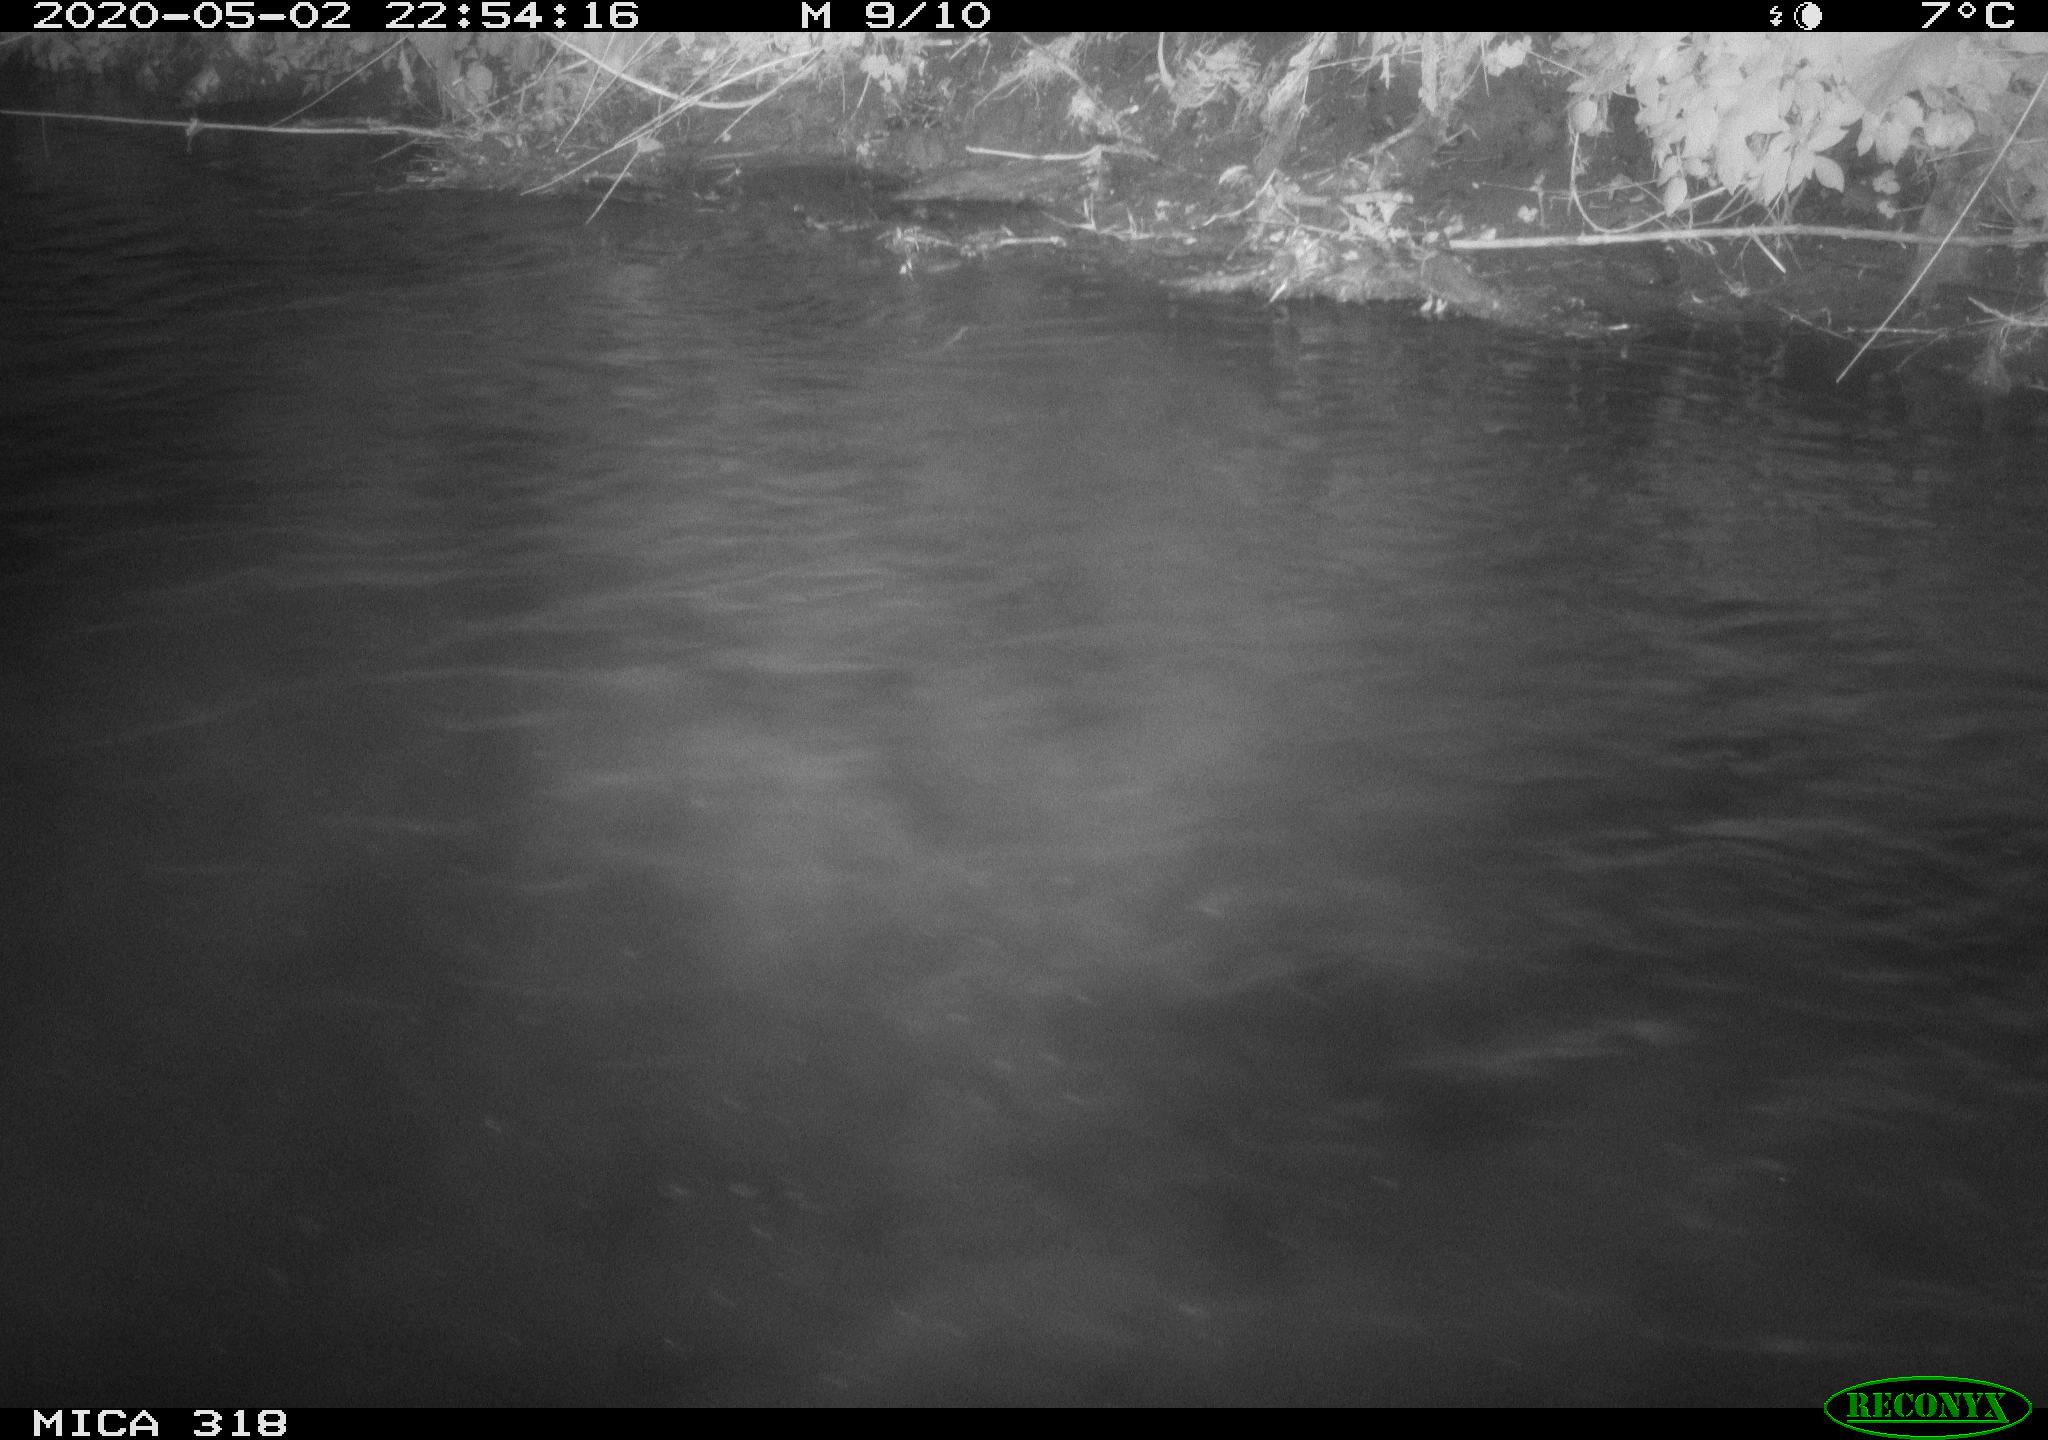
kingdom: Animalia
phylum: Chordata
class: Aves
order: Pelecaniformes
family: Ardeidae
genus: Ardea
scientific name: Ardea cinerea
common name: Grey heron
